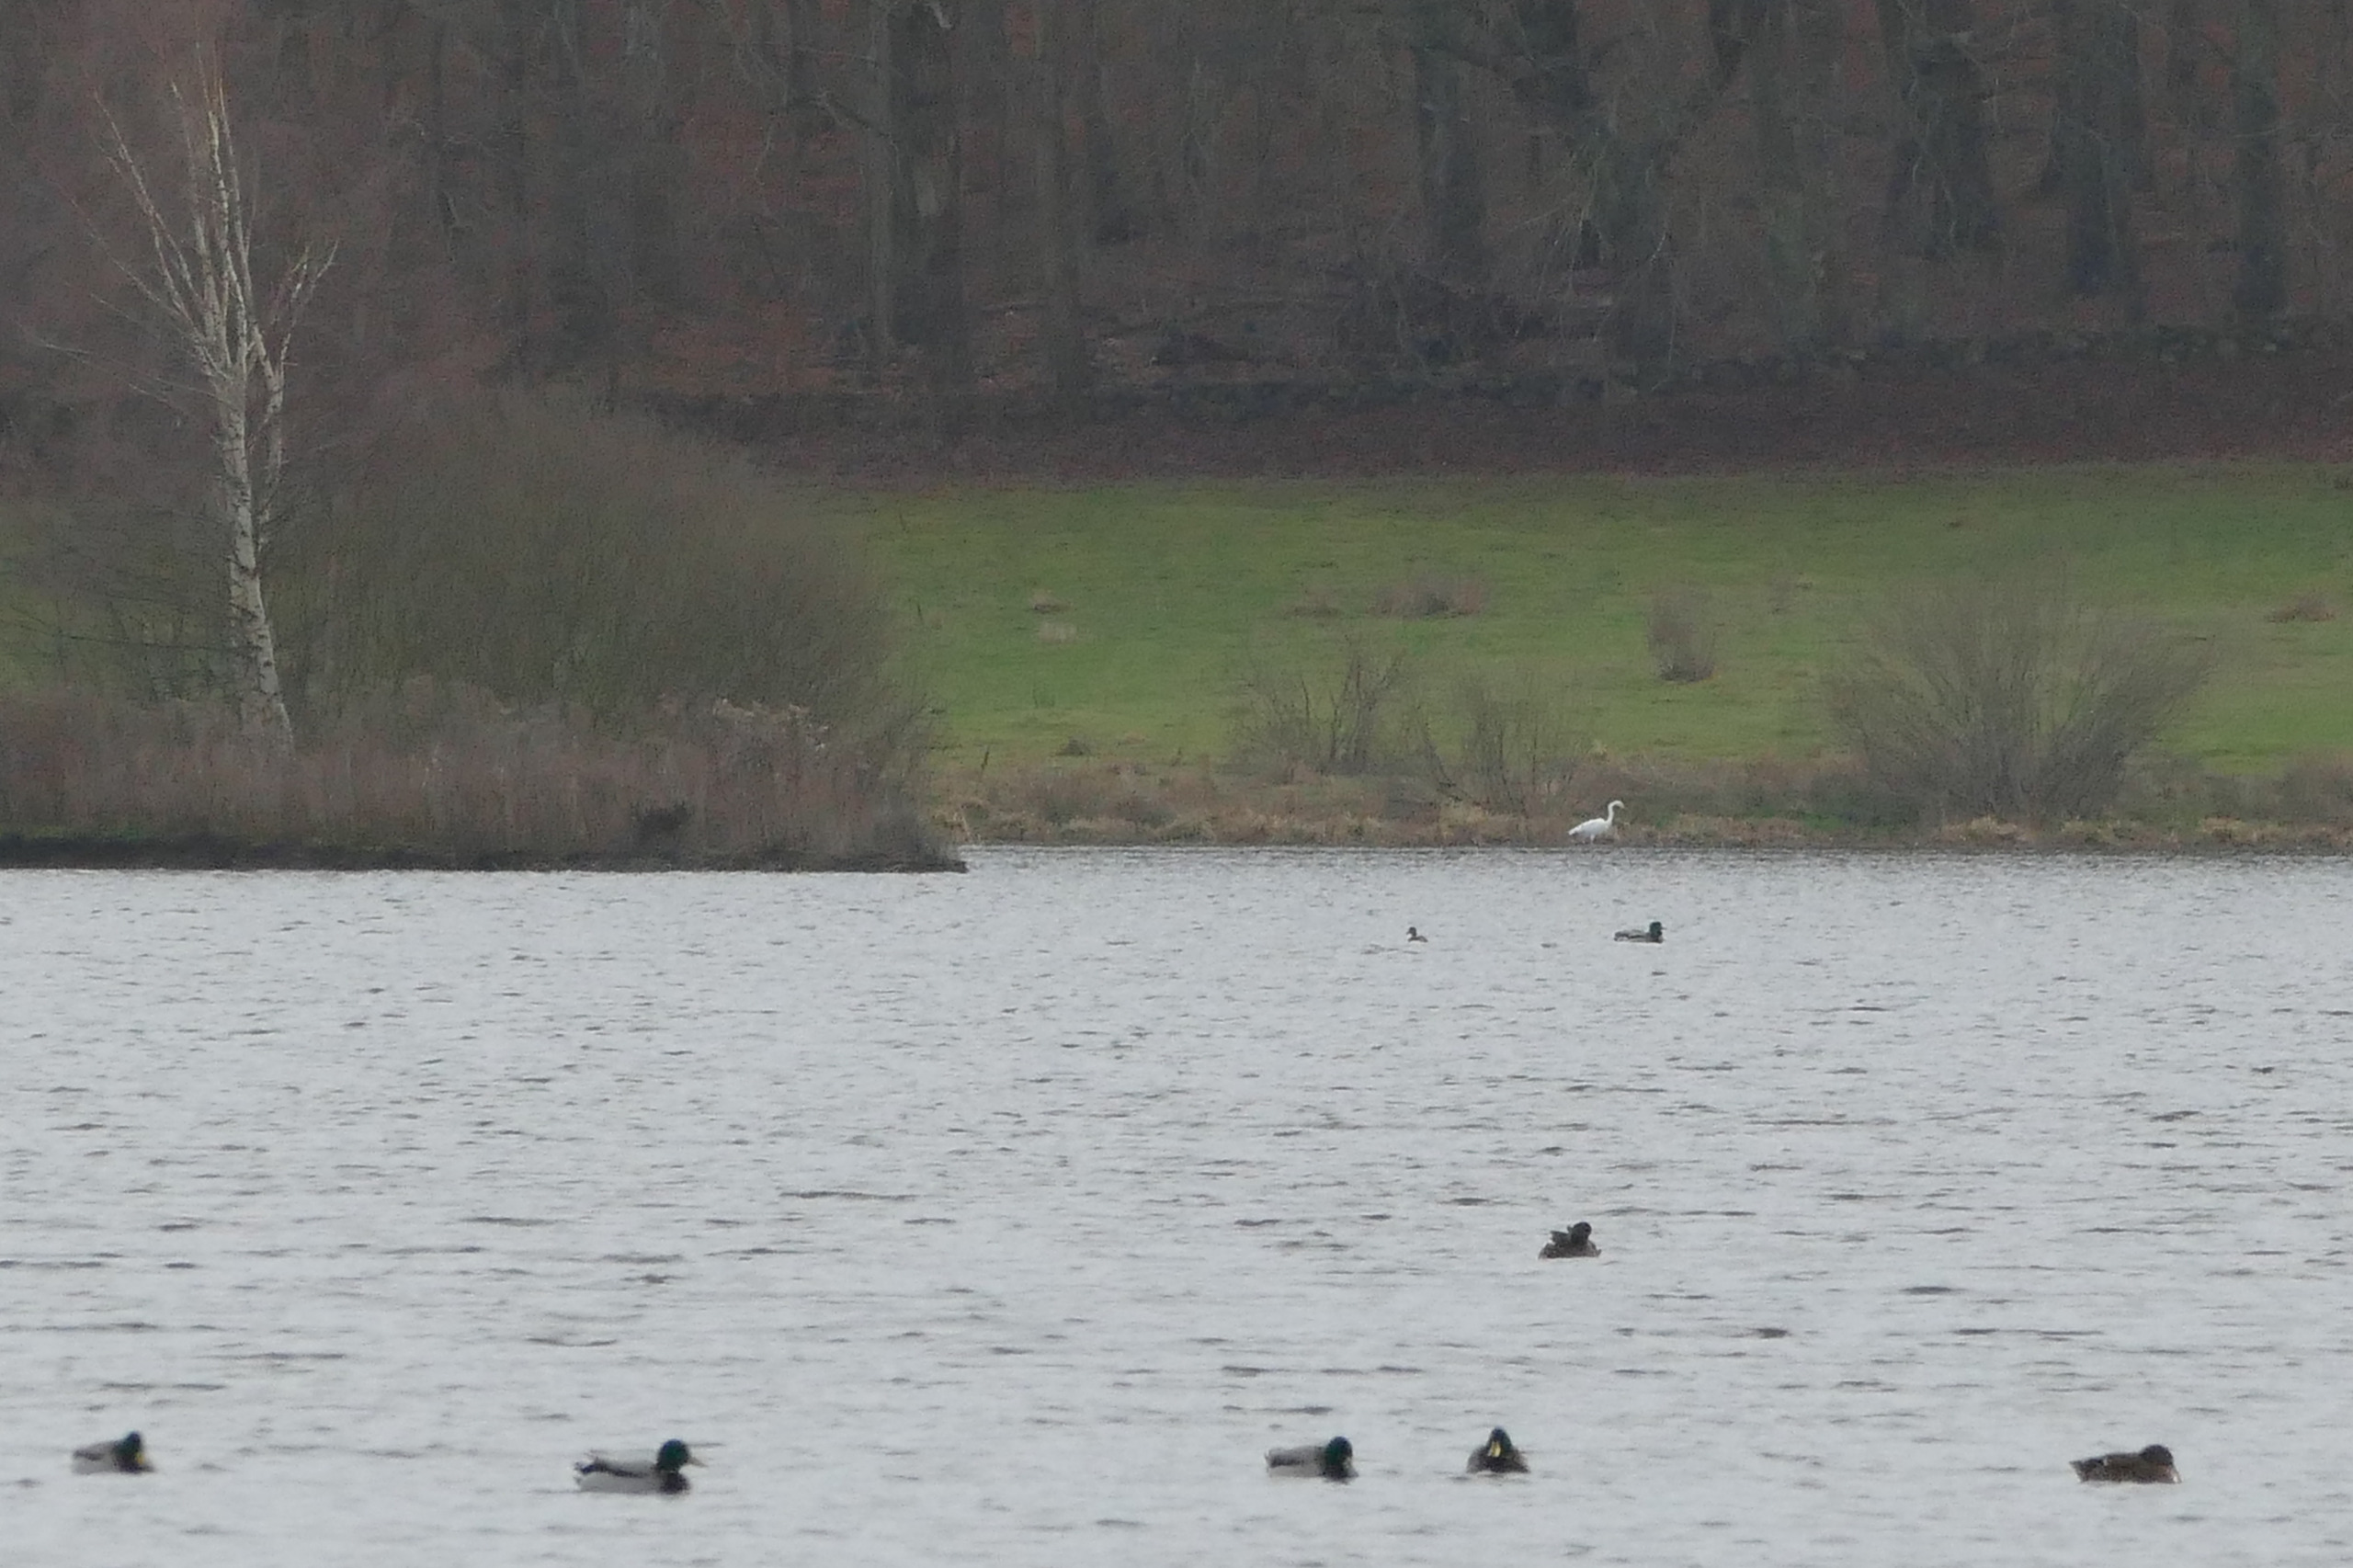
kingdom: Animalia
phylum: Chordata
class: Aves
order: Pelecaniformes
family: Ardeidae
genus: Ardea
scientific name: Ardea alba
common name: Sølvhejre
